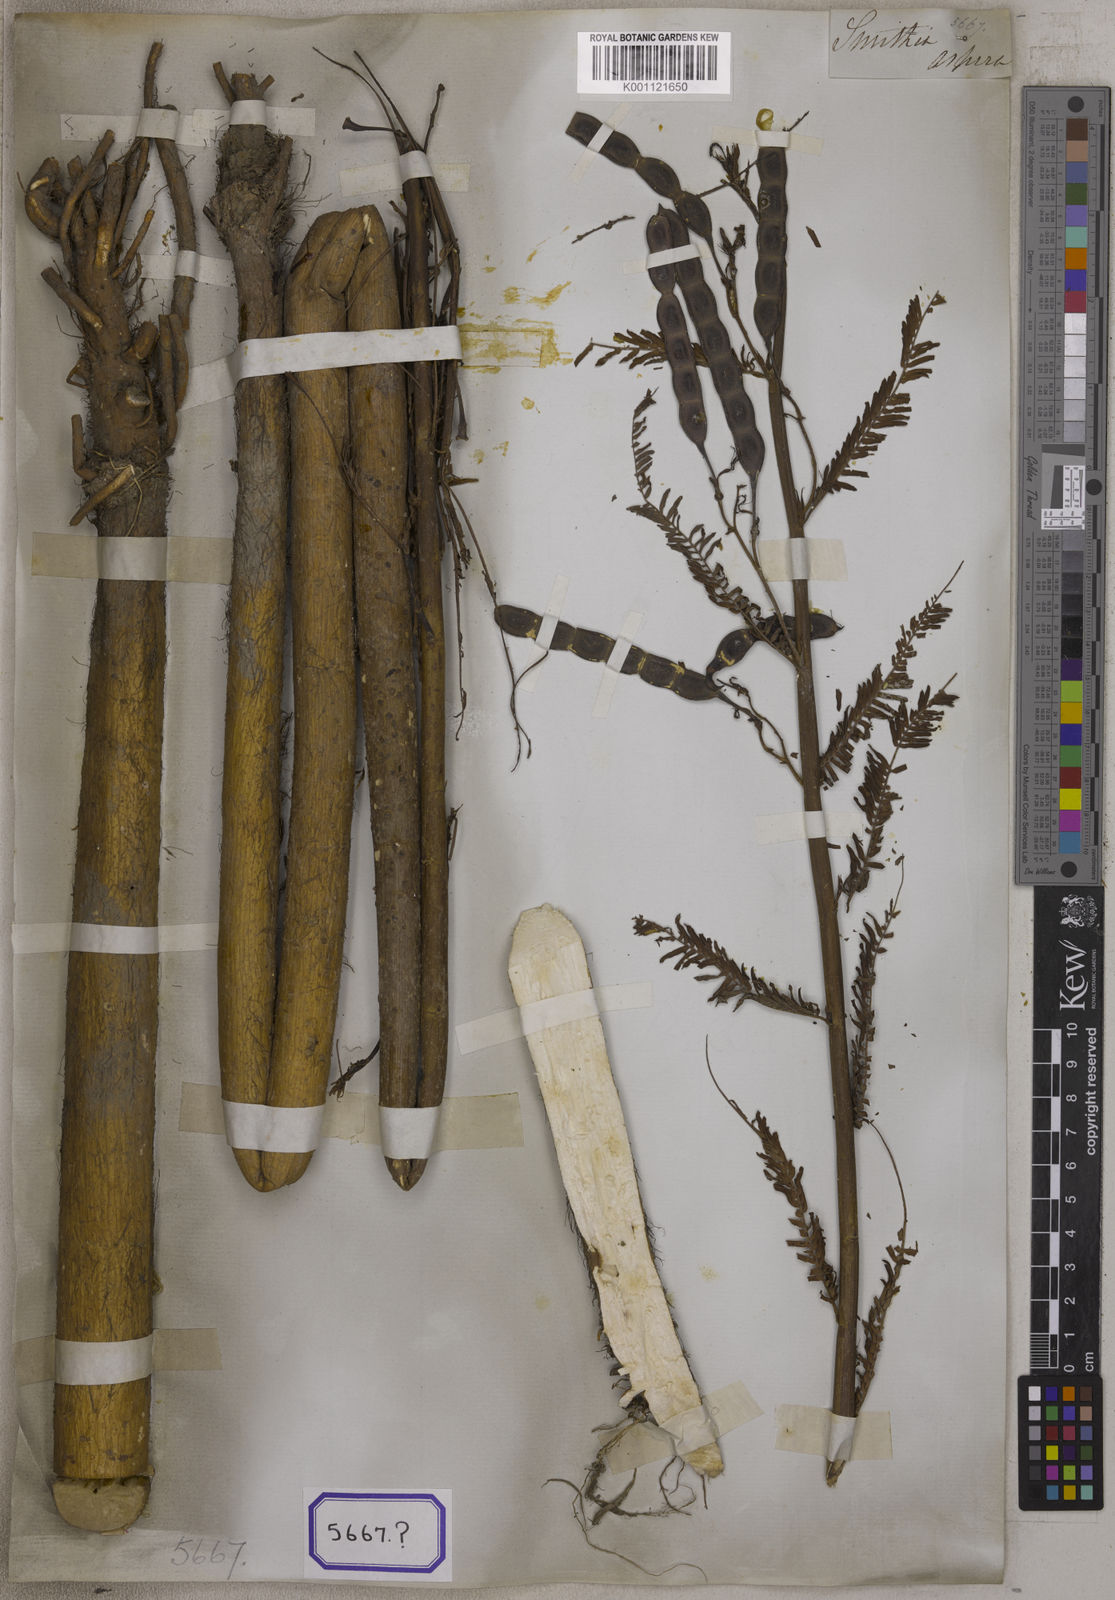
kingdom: Plantae
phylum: Tracheophyta
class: Magnoliopsida
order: Fabales
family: Fabaceae
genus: Aeschynomene
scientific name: Aeschynomene aspera
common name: Pith plant
